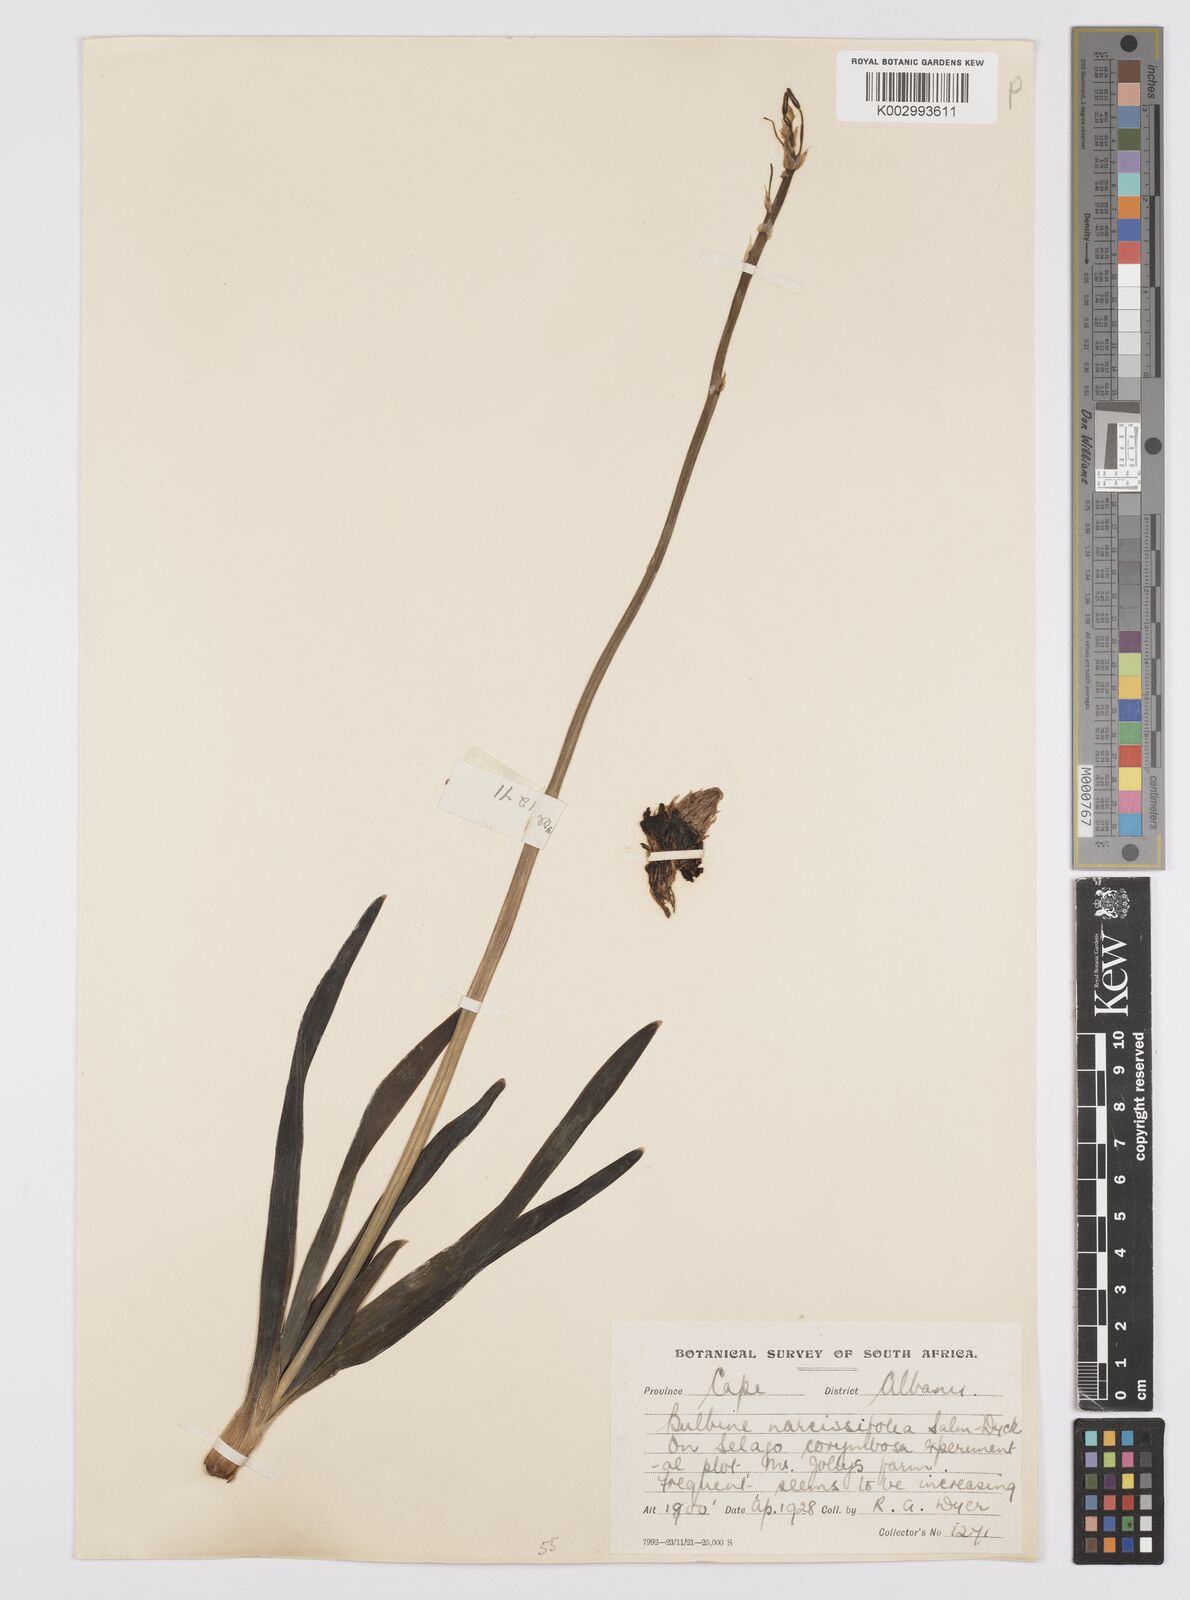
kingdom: Plantae
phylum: Tracheophyta
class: Liliopsida
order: Asparagales
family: Asphodelaceae
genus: Bulbine
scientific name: Bulbine narcissifolia
